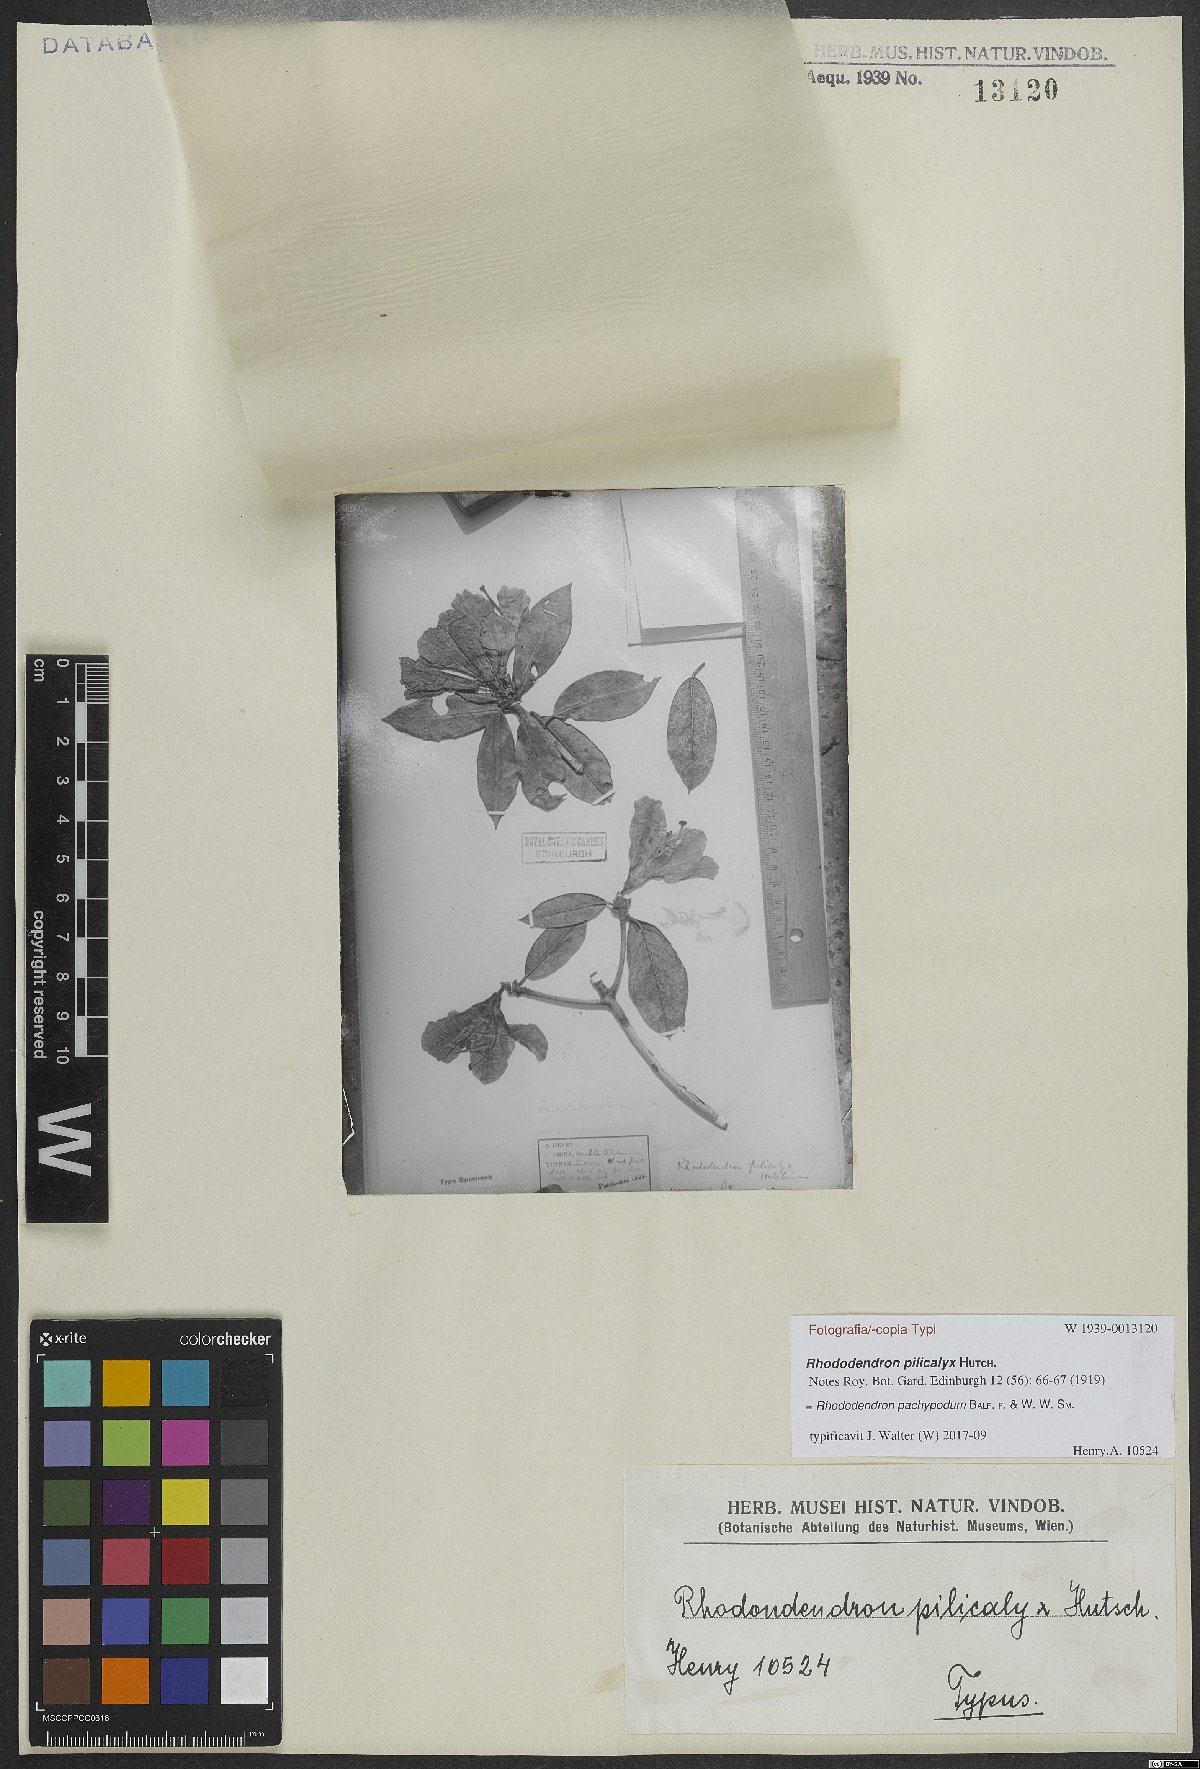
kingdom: Plantae
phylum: Tracheophyta
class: Magnoliopsida
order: Ericales
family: Ericaceae
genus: Rhododendron
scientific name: Rhododendron pachypodum
